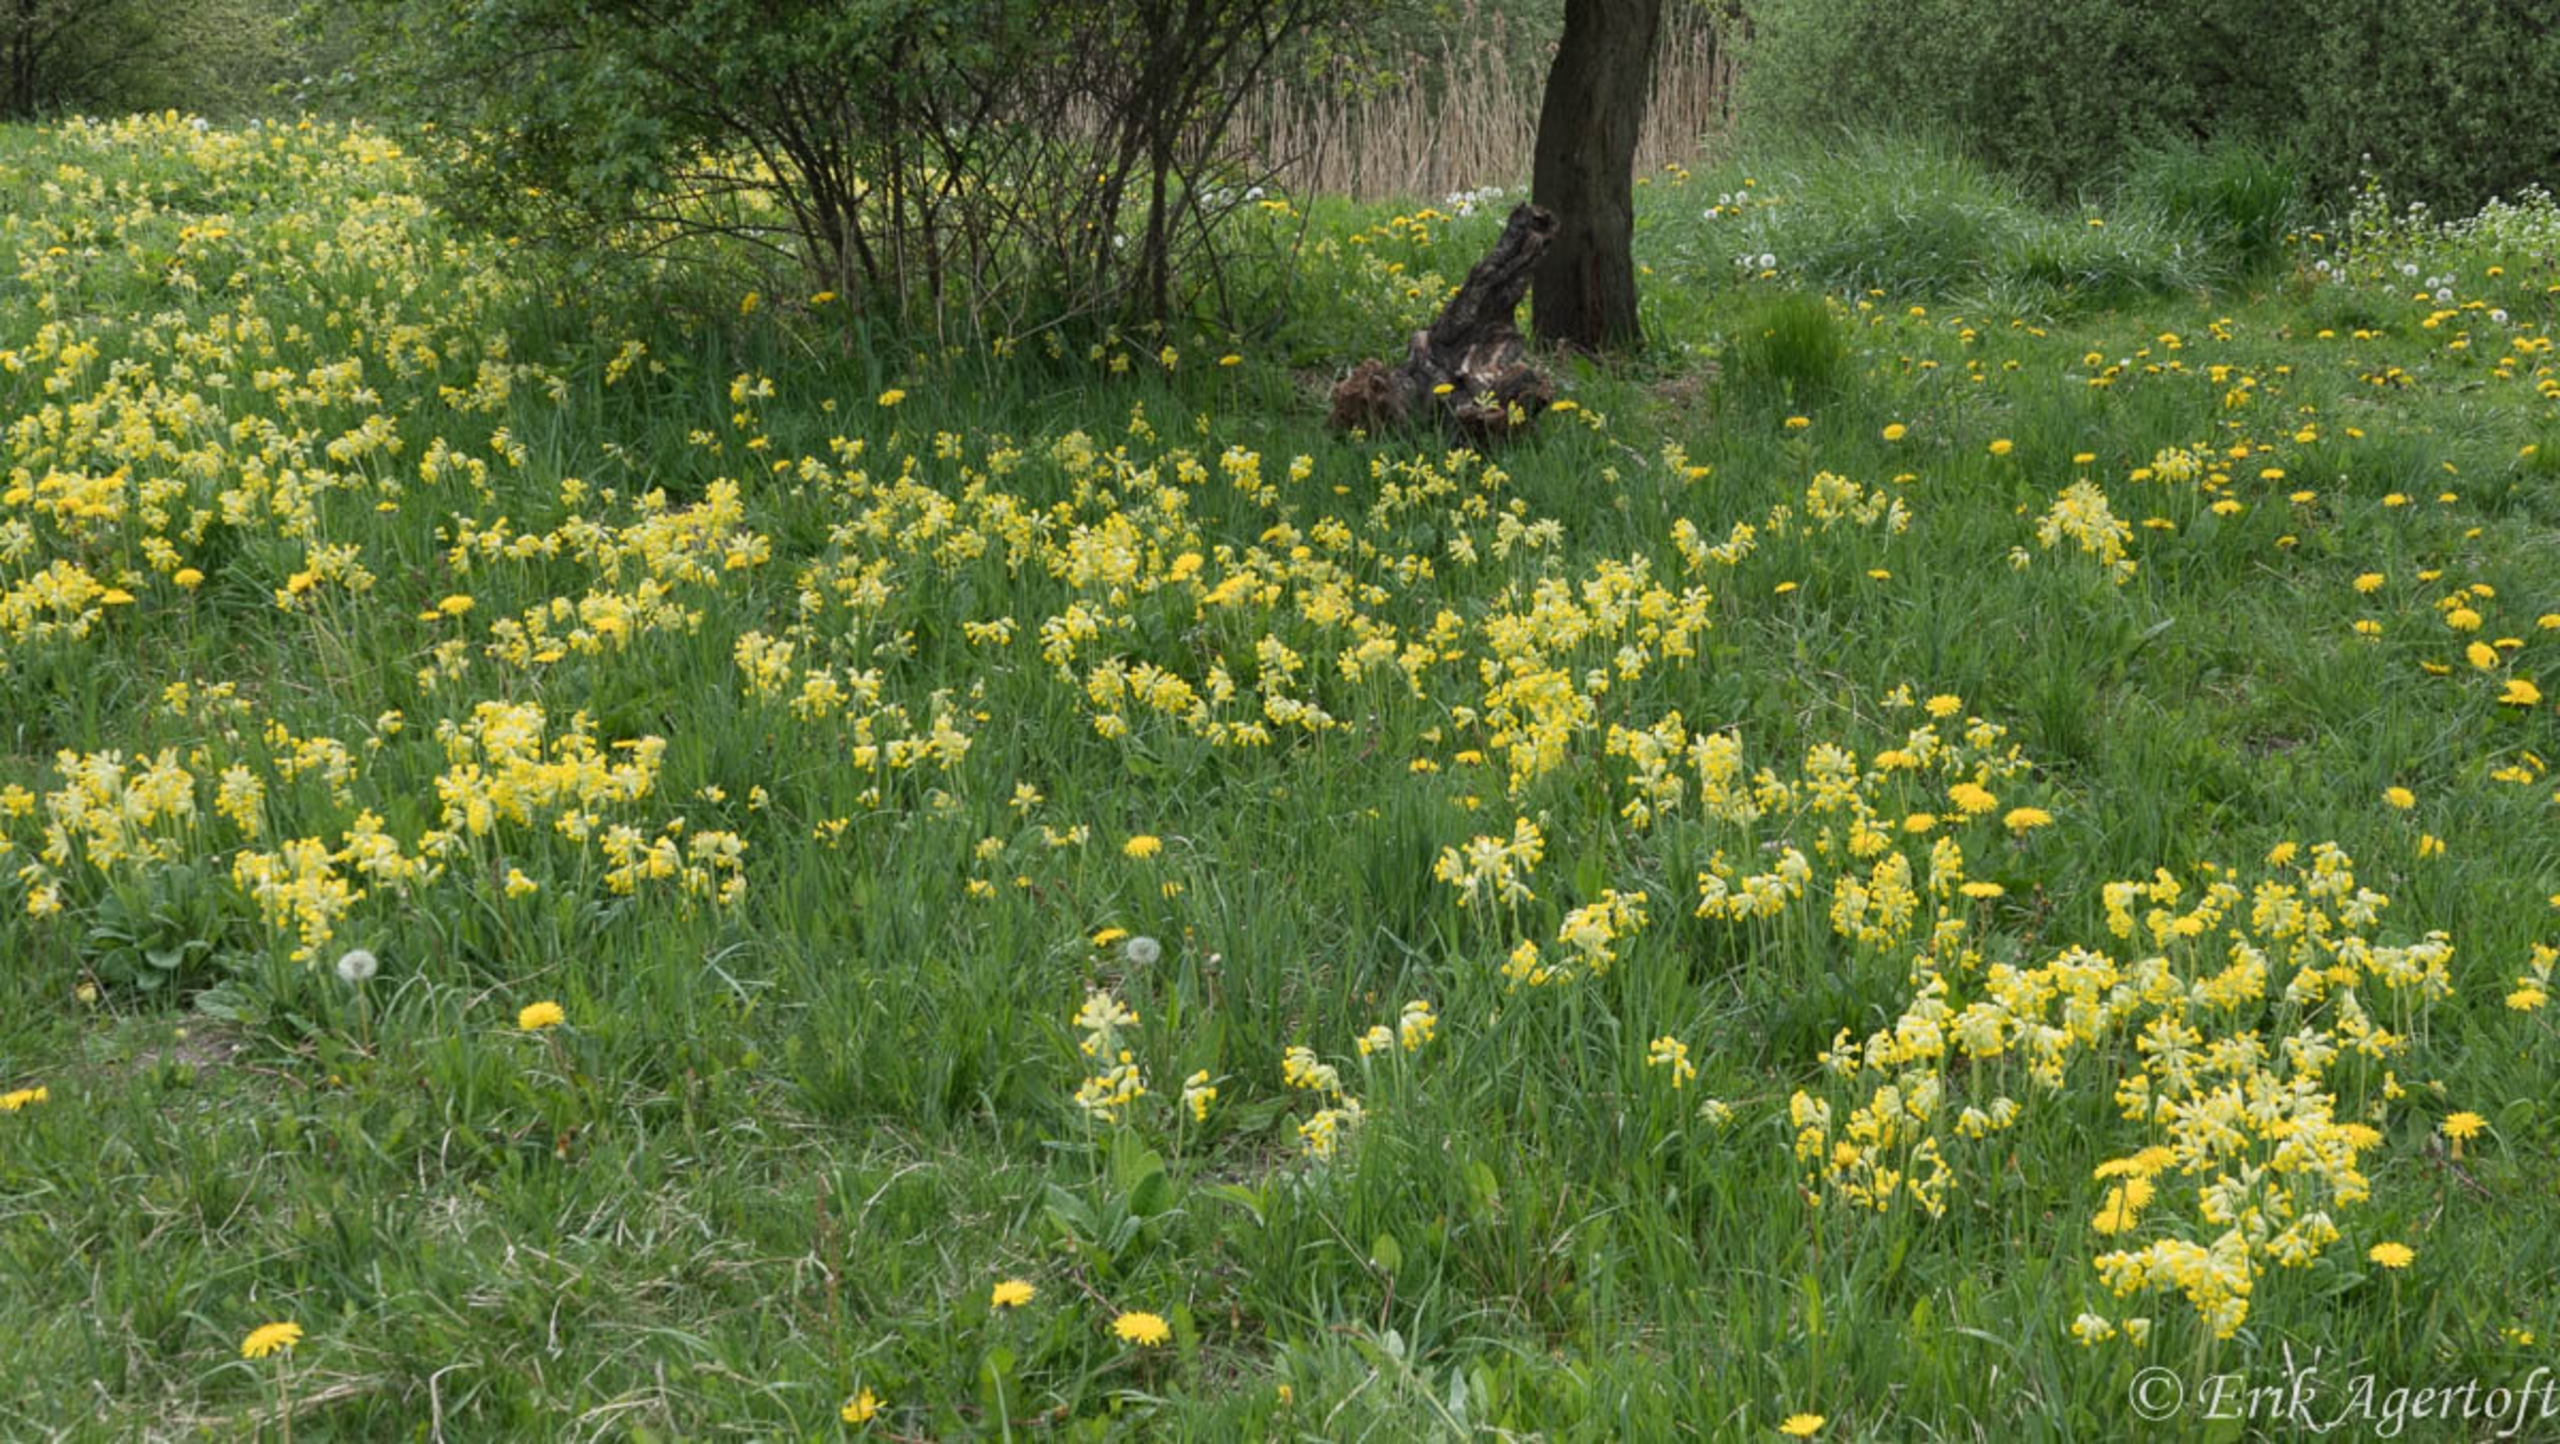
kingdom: Plantae
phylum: Tracheophyta
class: Magnoliopsida
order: Ericales
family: Primulaceae
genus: Primula
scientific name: Primula veris
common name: Hulkravet kodriver
